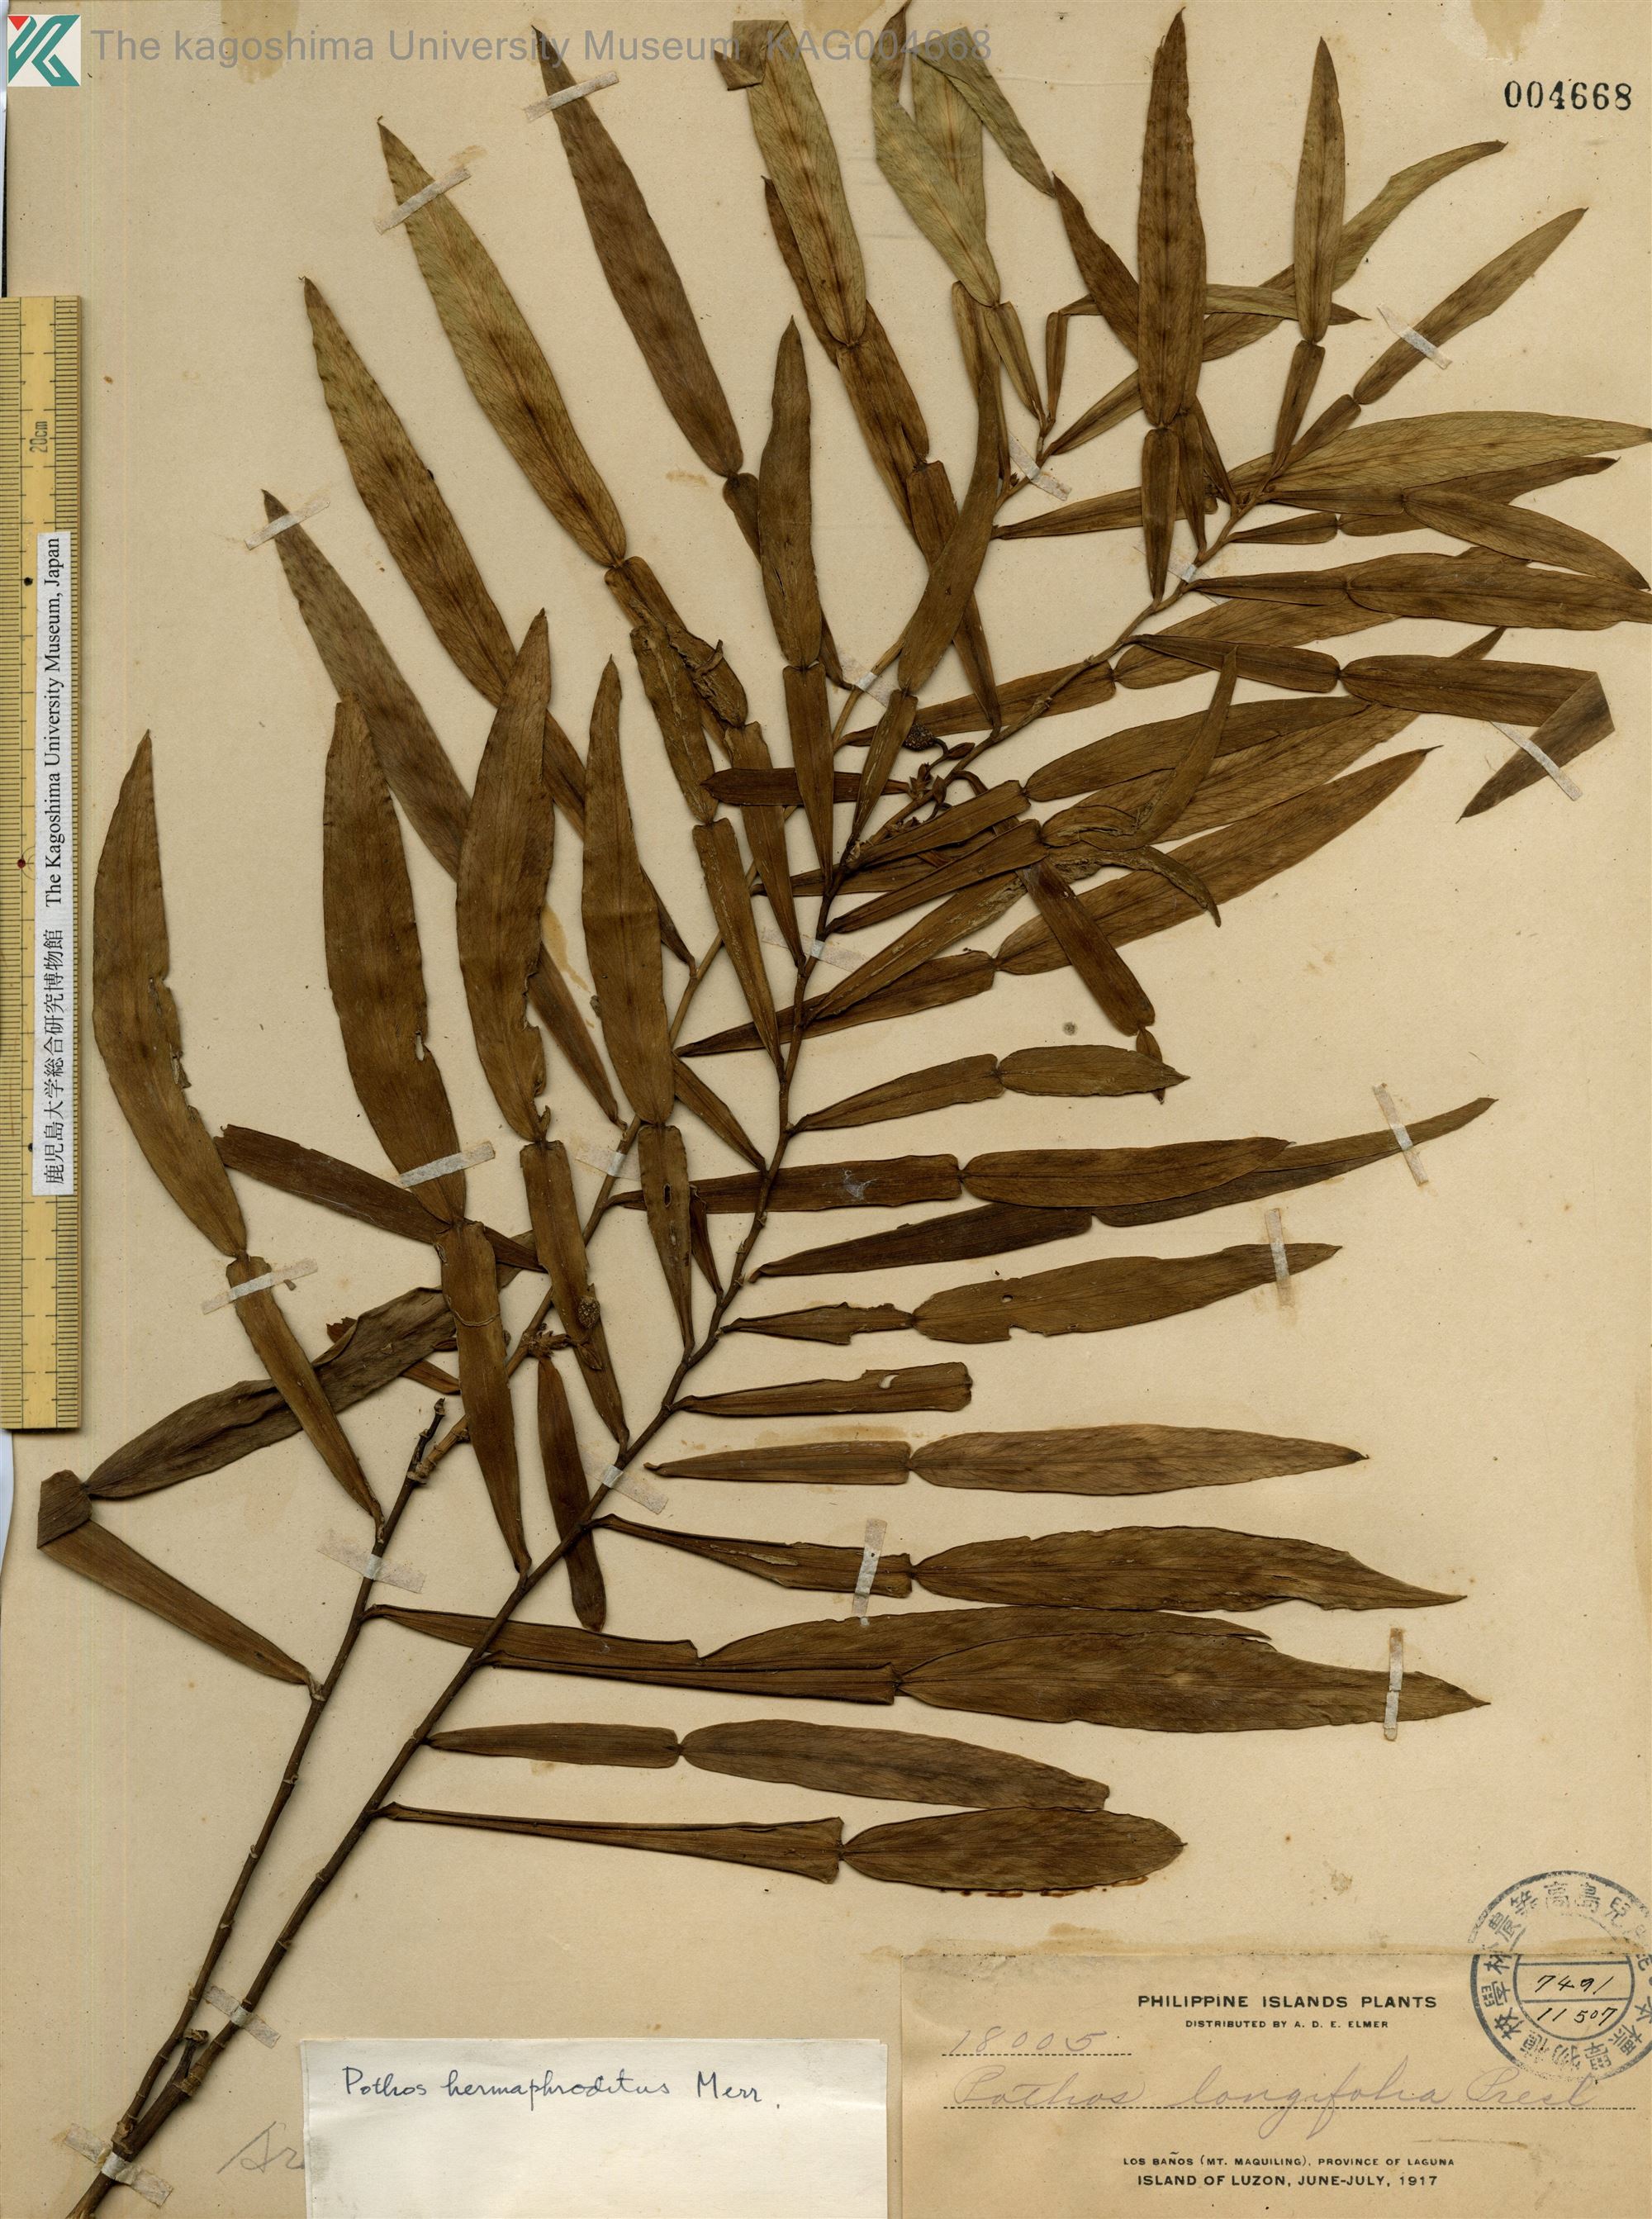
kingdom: Plantae
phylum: Tracheophyta
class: Liliopsida
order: Alismatales
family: Araceae
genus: Pothos
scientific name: Pothos scandens
